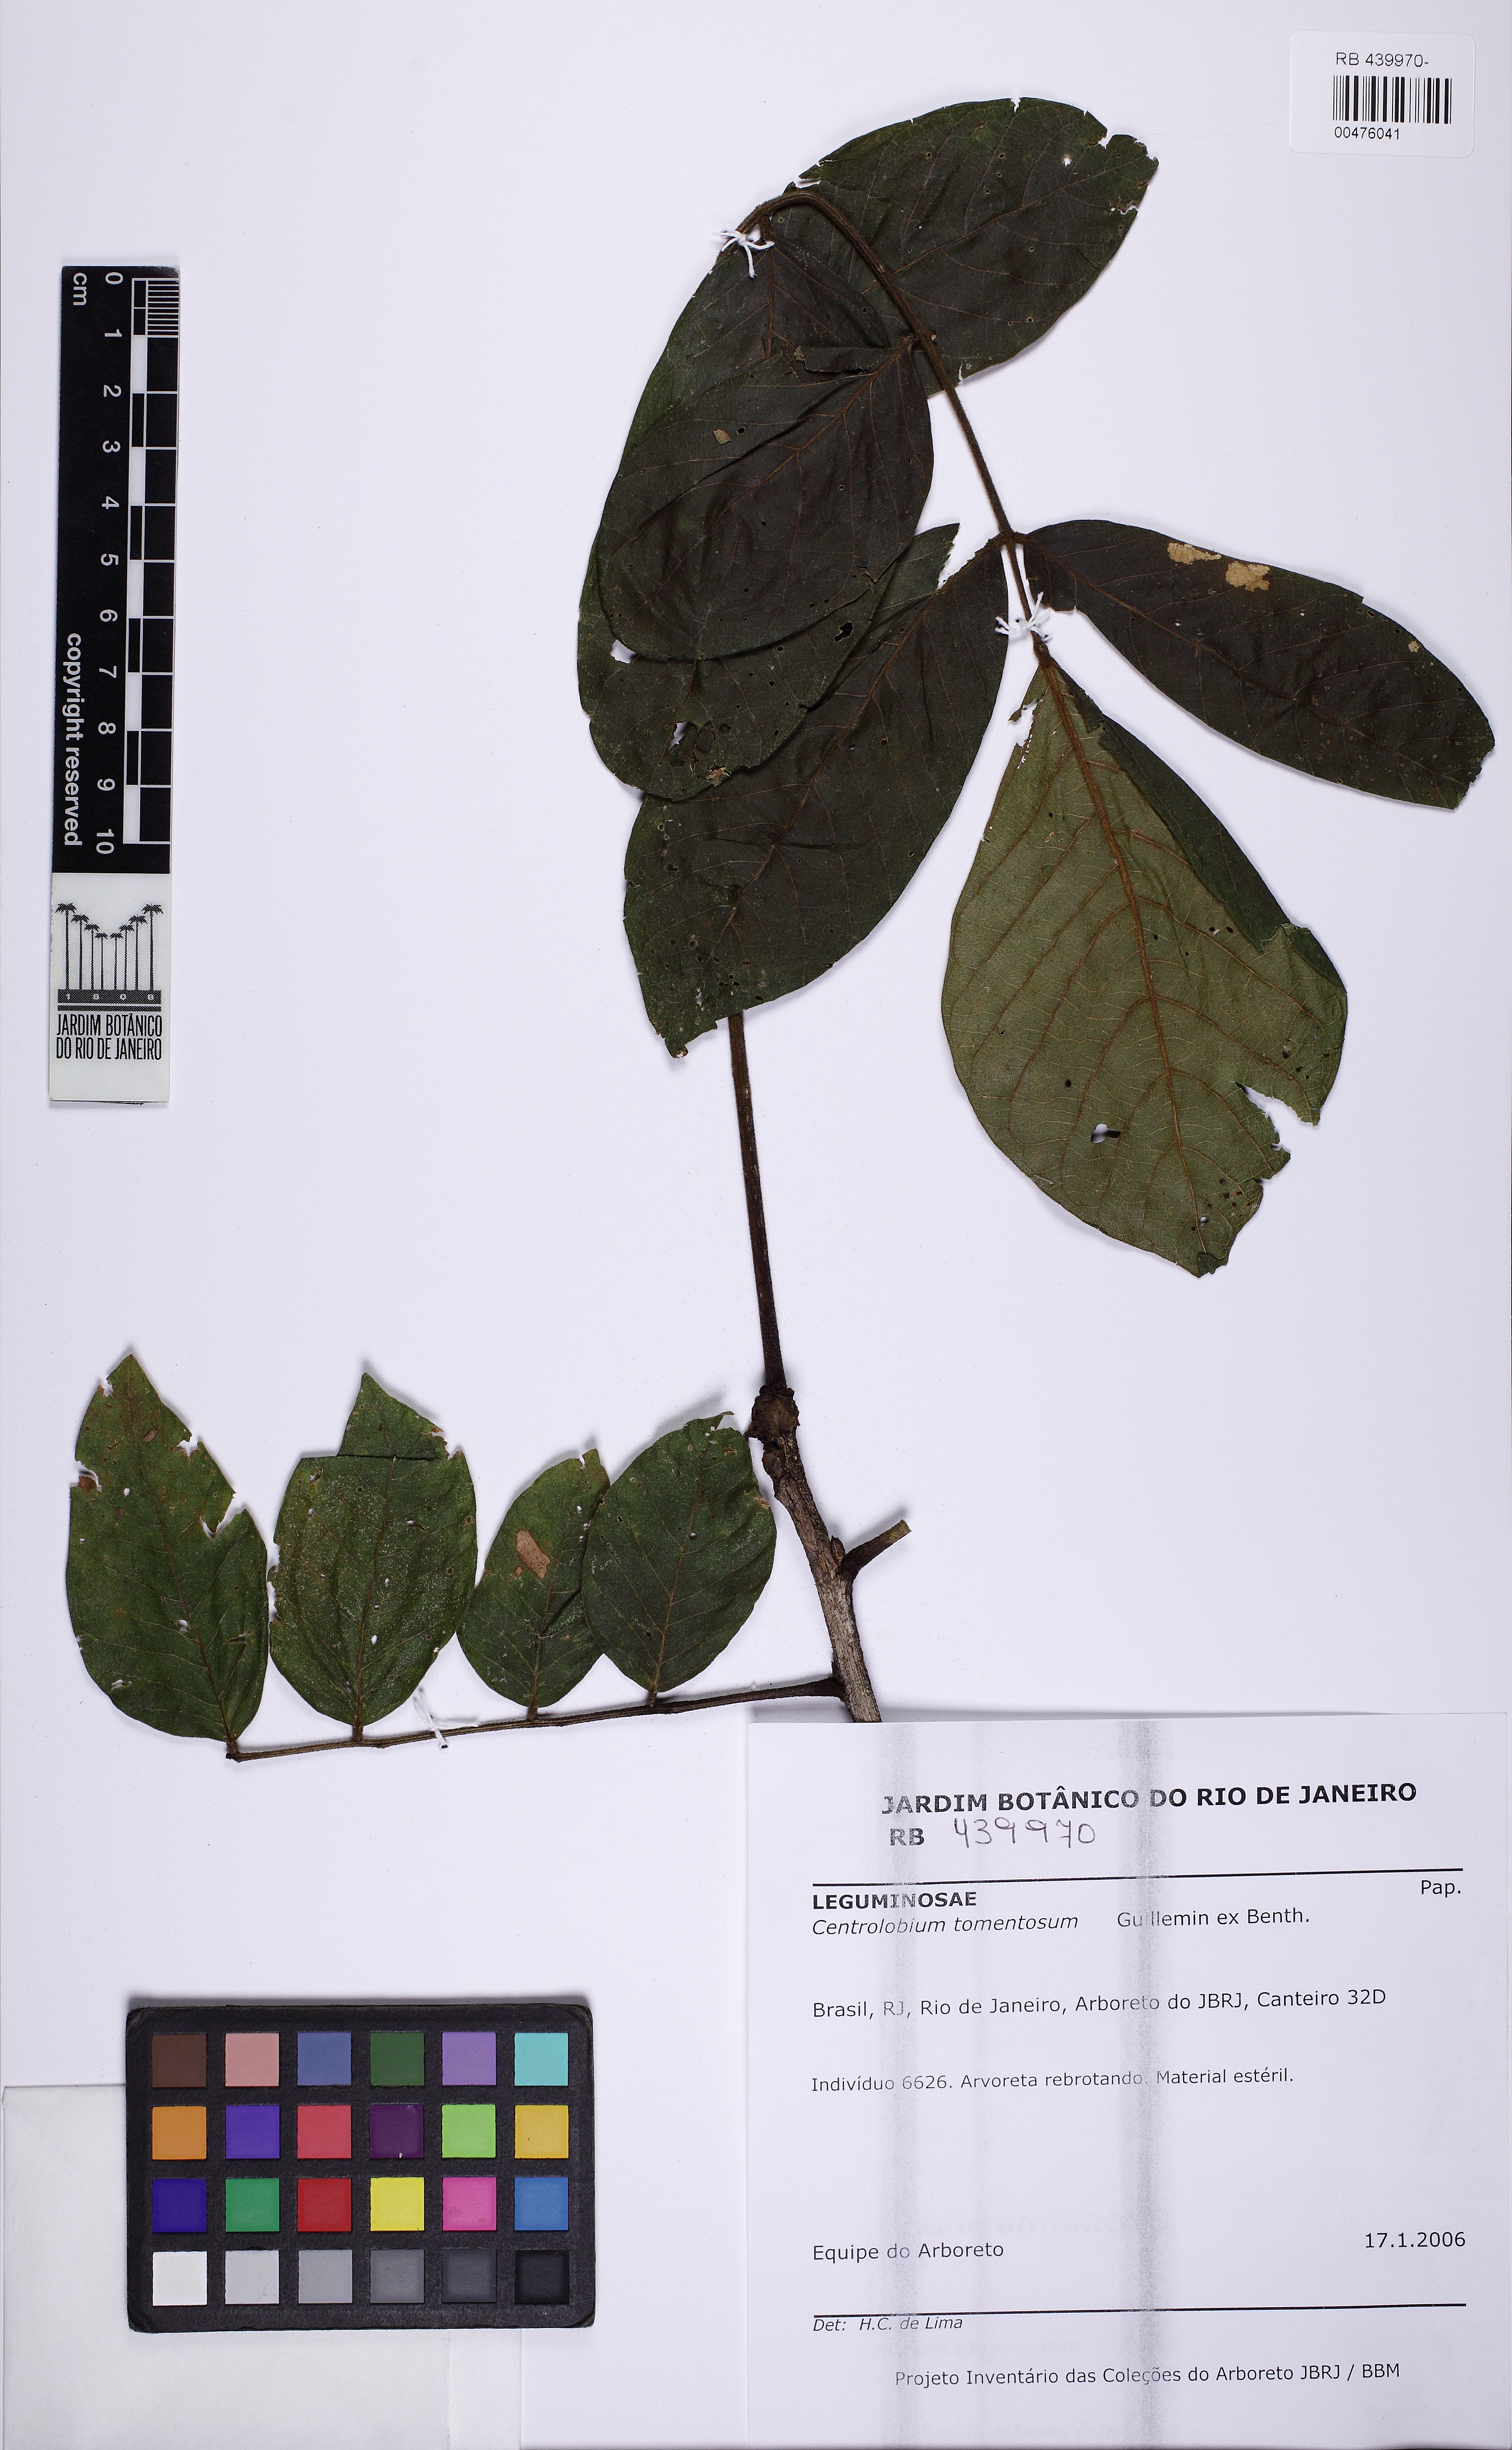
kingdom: Plantae
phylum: Tracheophyta
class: Magnoliopsida
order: Fabales
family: Fabaceae
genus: Centrolobium
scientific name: Centrolobium tomentosum
